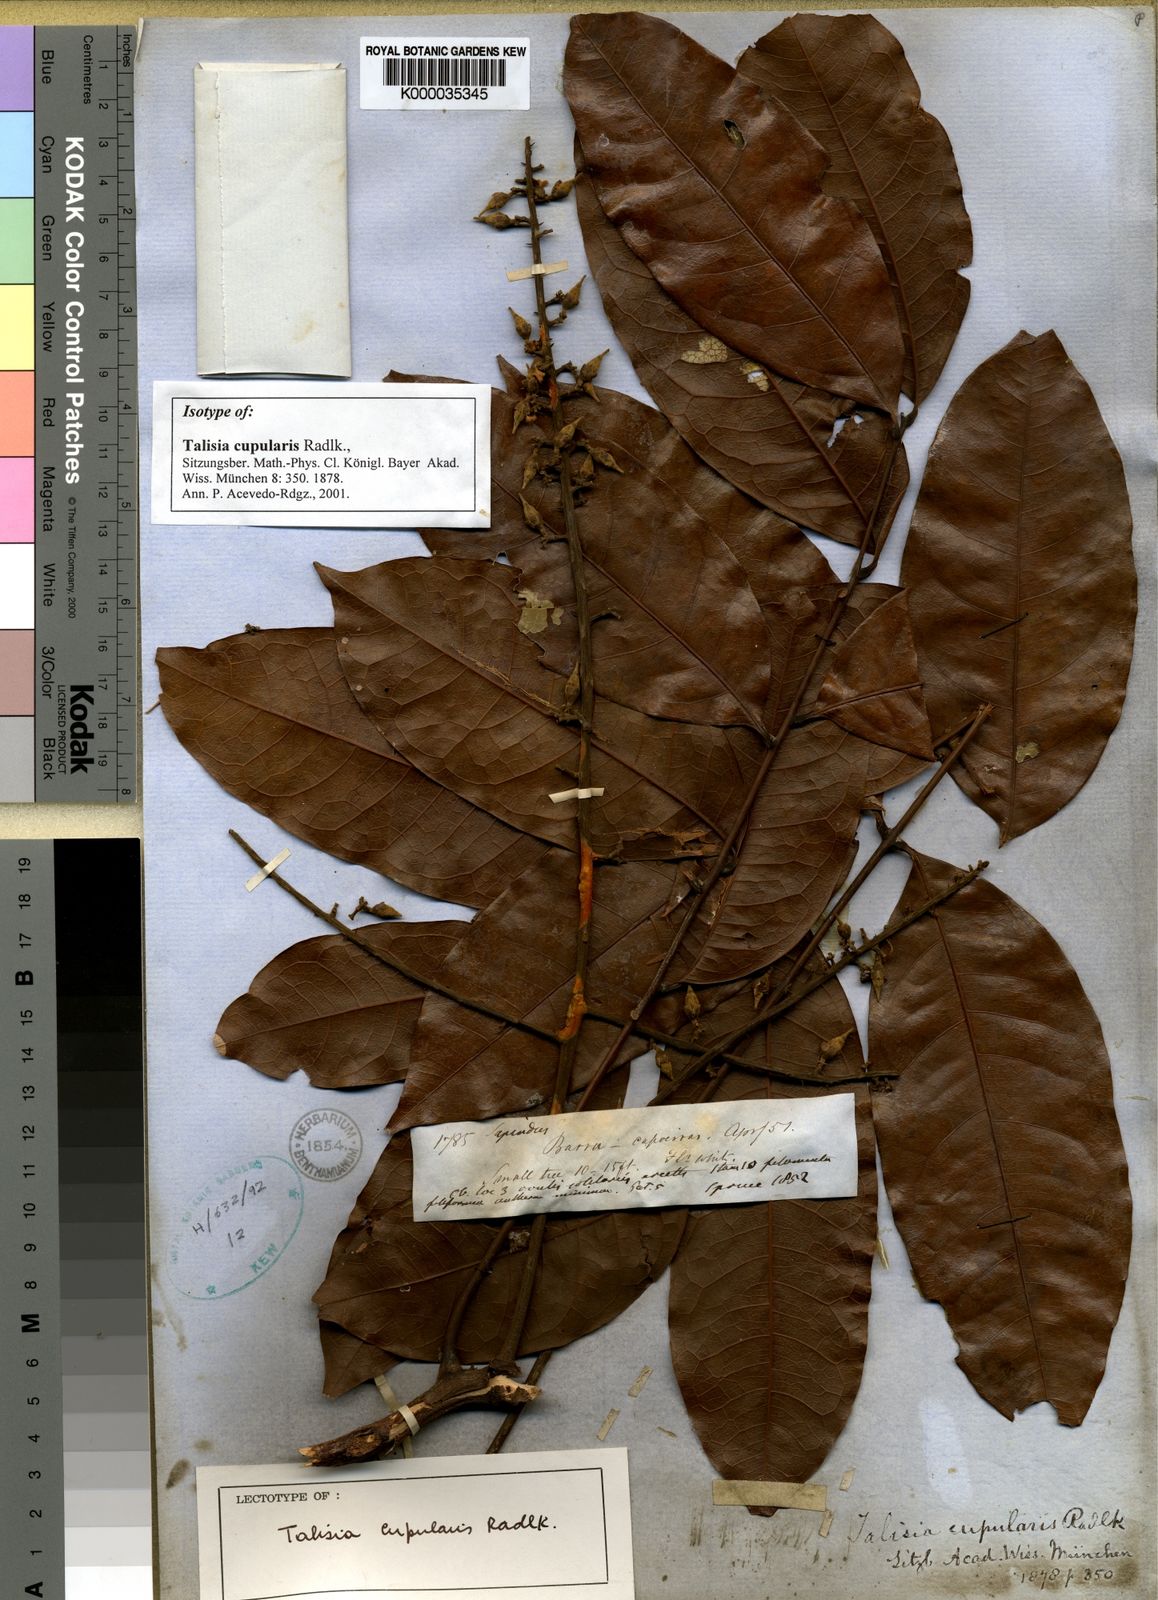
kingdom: Plantae
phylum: Tracheophyta
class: Magnoliopsida
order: Sapindales
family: Sapindaceae
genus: Talisia
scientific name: Talisia cupularis
